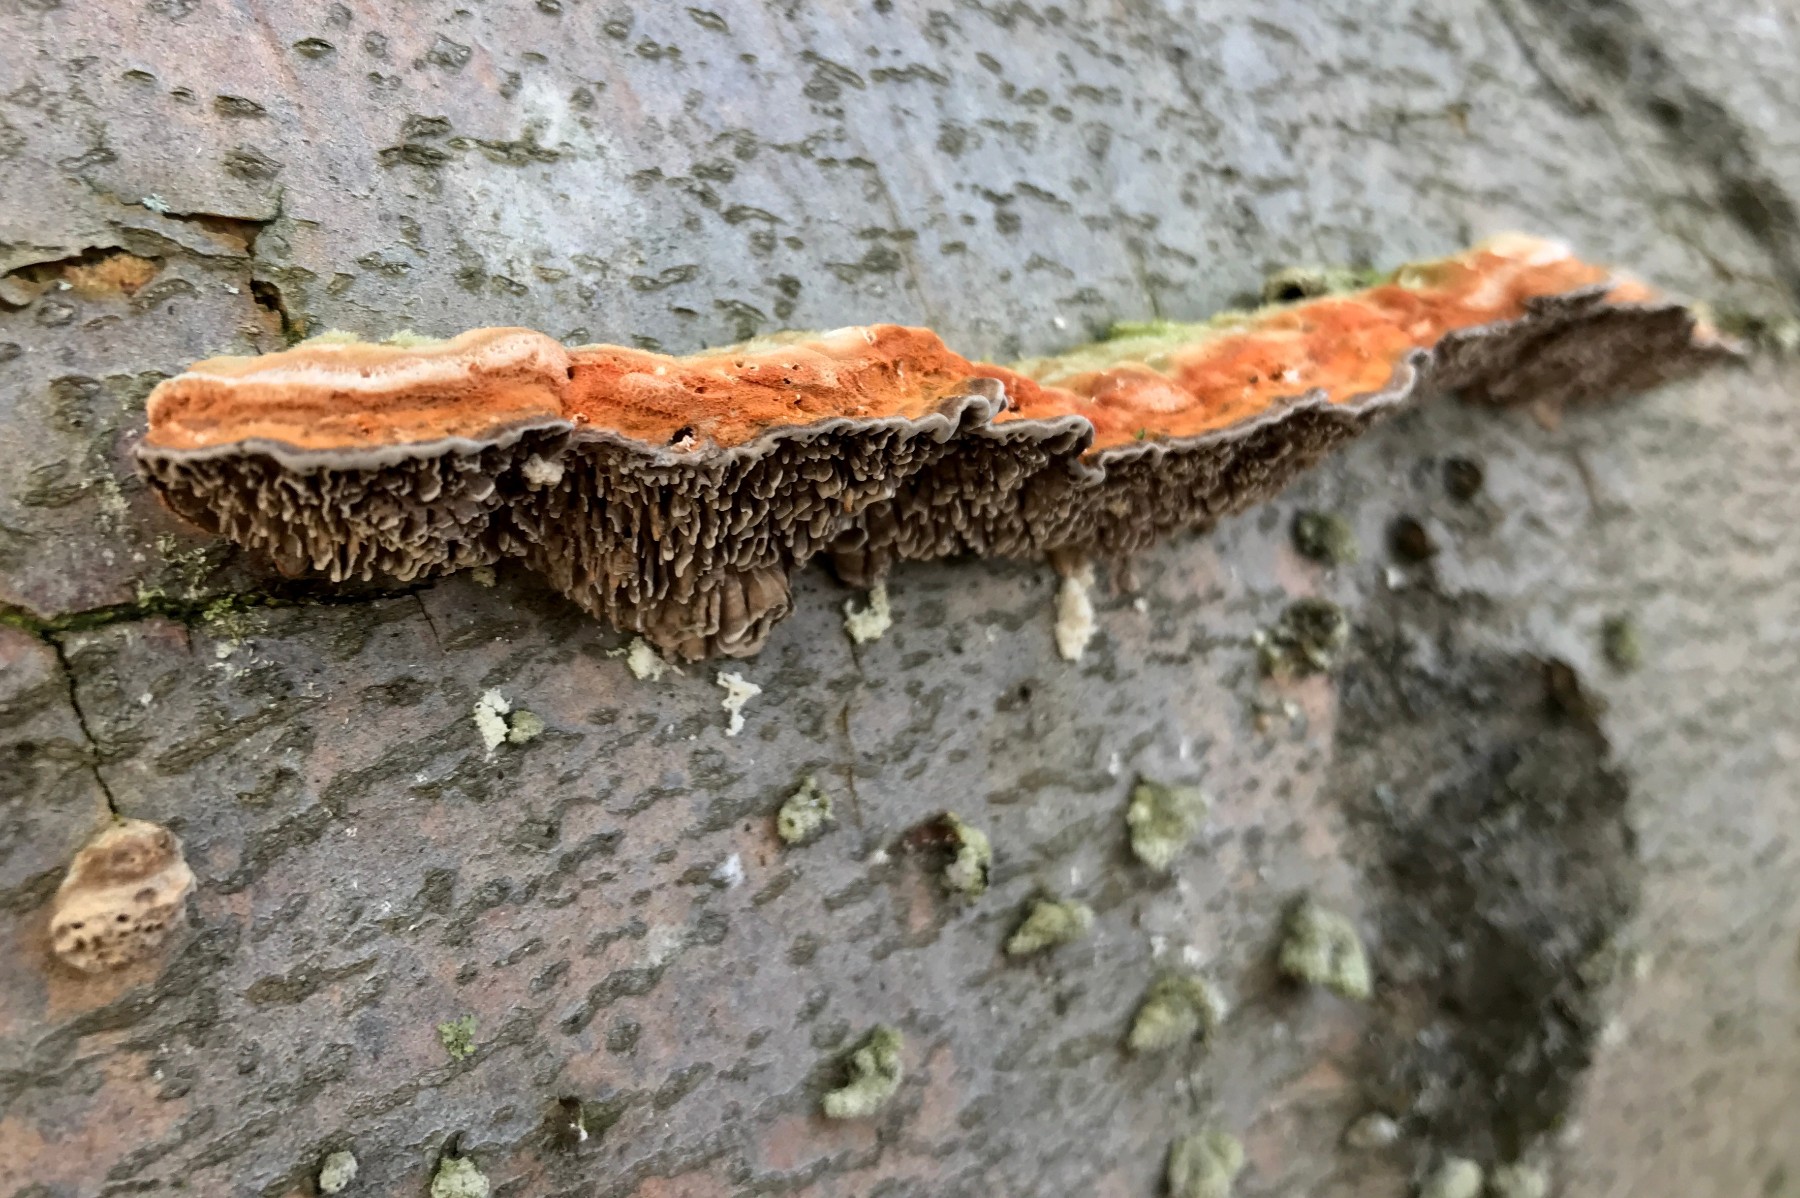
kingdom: Fungi
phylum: Basidiomycota
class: Agaricomycetes
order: Polyporales
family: Polyporaceae
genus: Lenzites
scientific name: Lenzites betulinus
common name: birke-læderporesvamp
